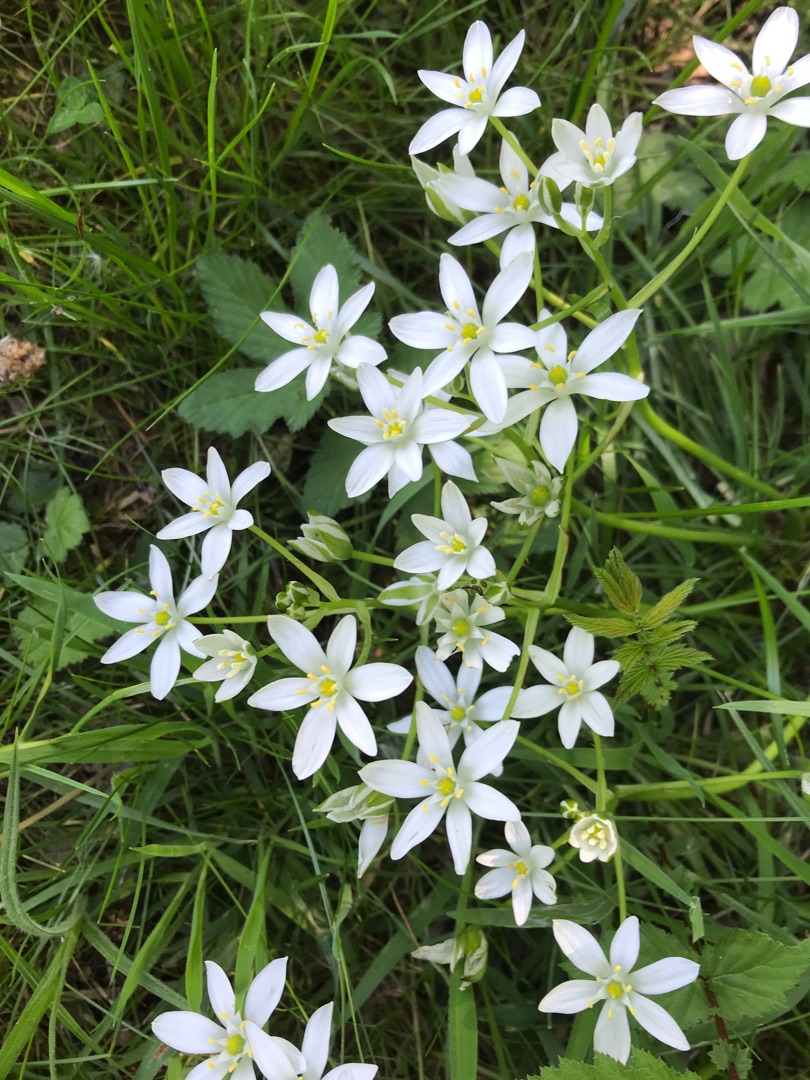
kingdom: Plantae
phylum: Tracheophyta
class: Liliopsida
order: Asparagales
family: Asparagaceae
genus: Ornithogalum
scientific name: Ornithogalum umbellatum
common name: Kost-fuglemælk
